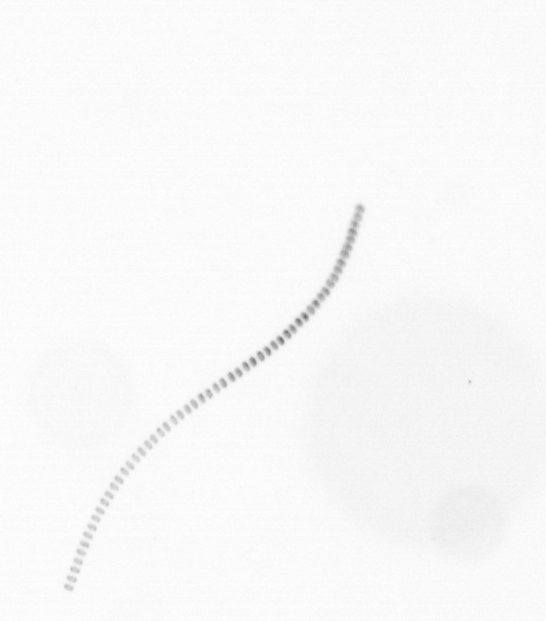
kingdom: Chromista
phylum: Ochrophyta
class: Bacillariophyceae
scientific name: Bacillariophyceae
